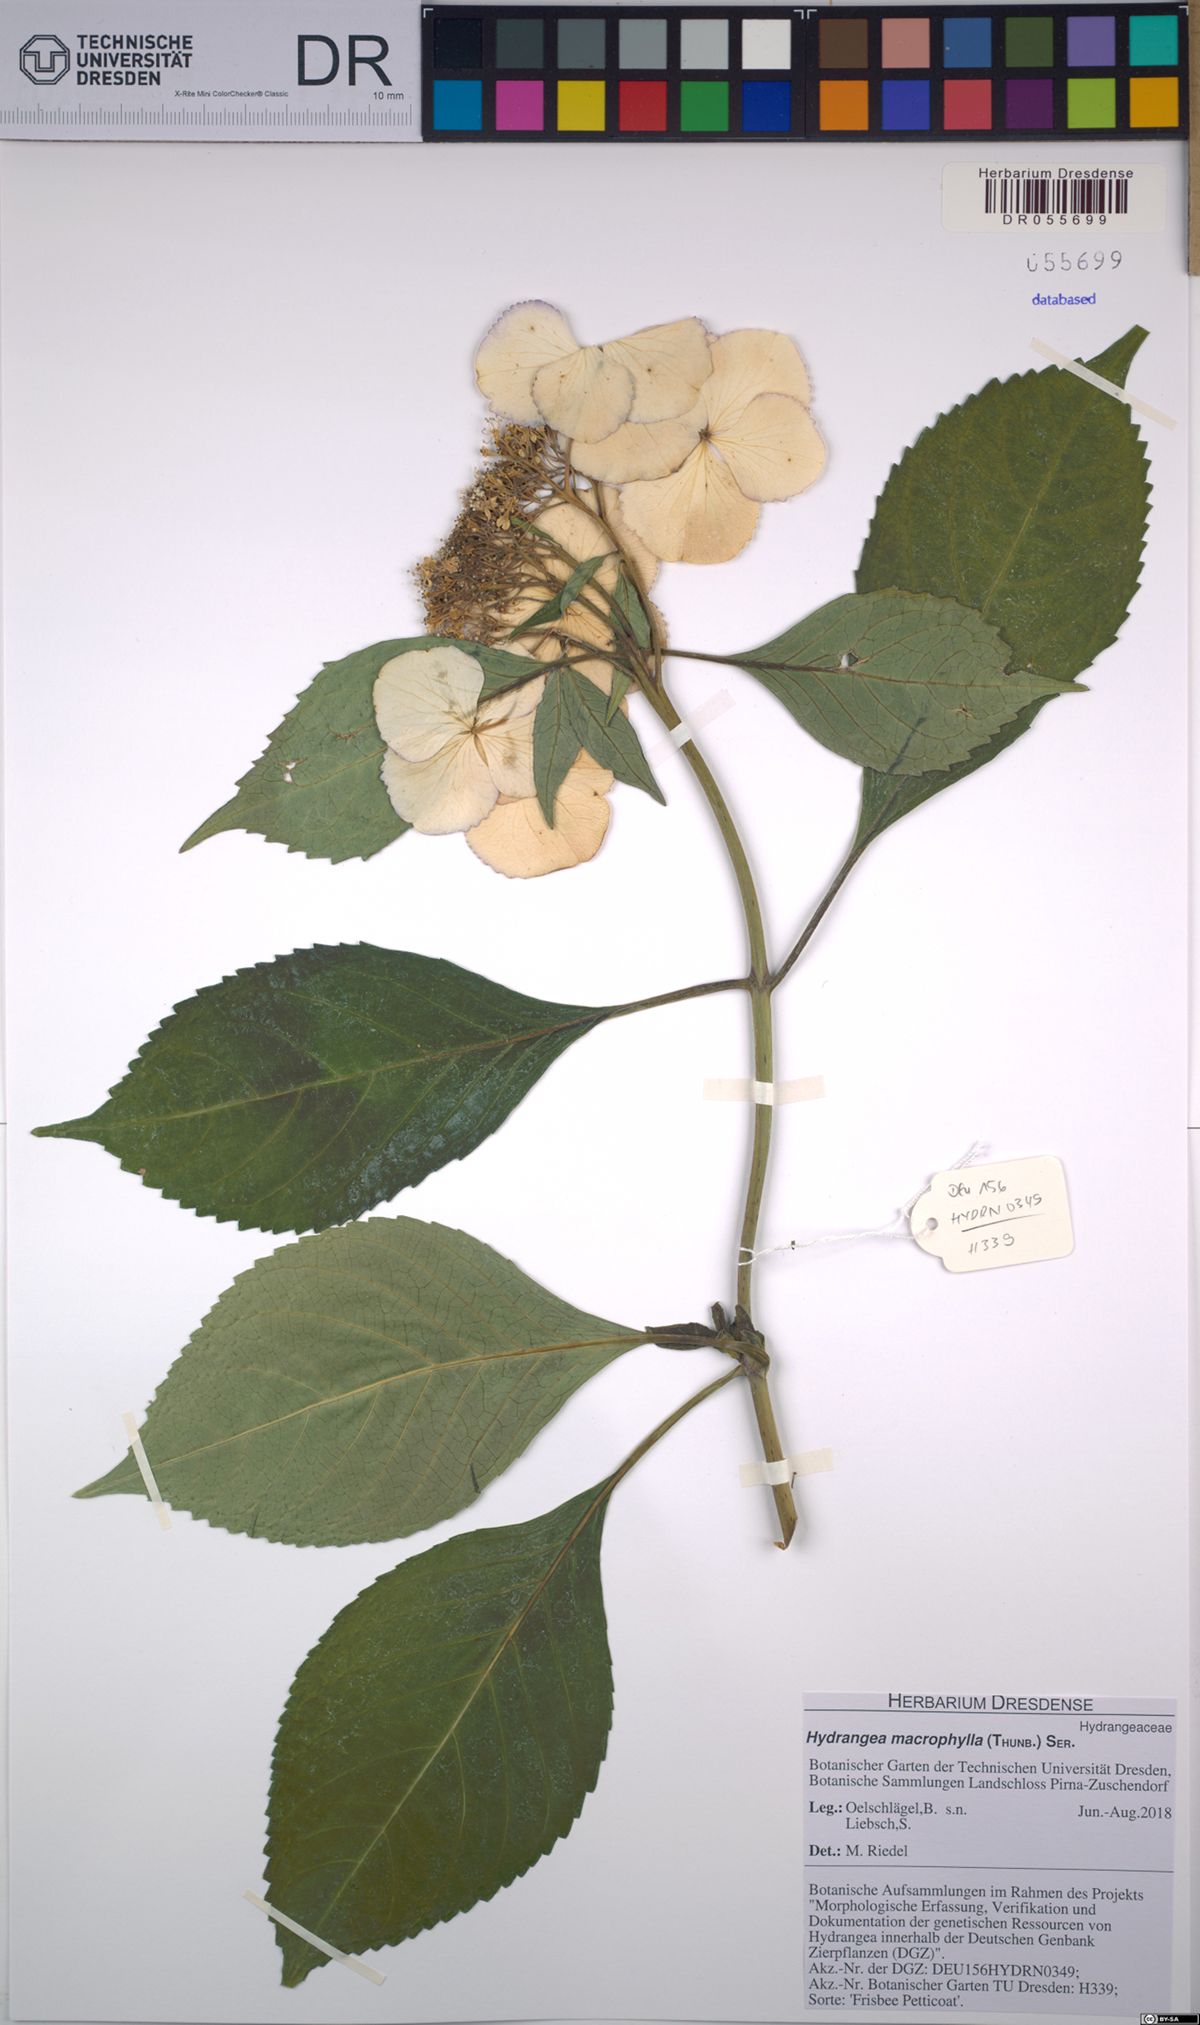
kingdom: Plantae
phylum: Tracheophyta
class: Magnoliopsida
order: Cornales
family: Hydrangeaceae
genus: Hydrangea
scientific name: Hydrangea macrophylla
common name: Hydrangea
